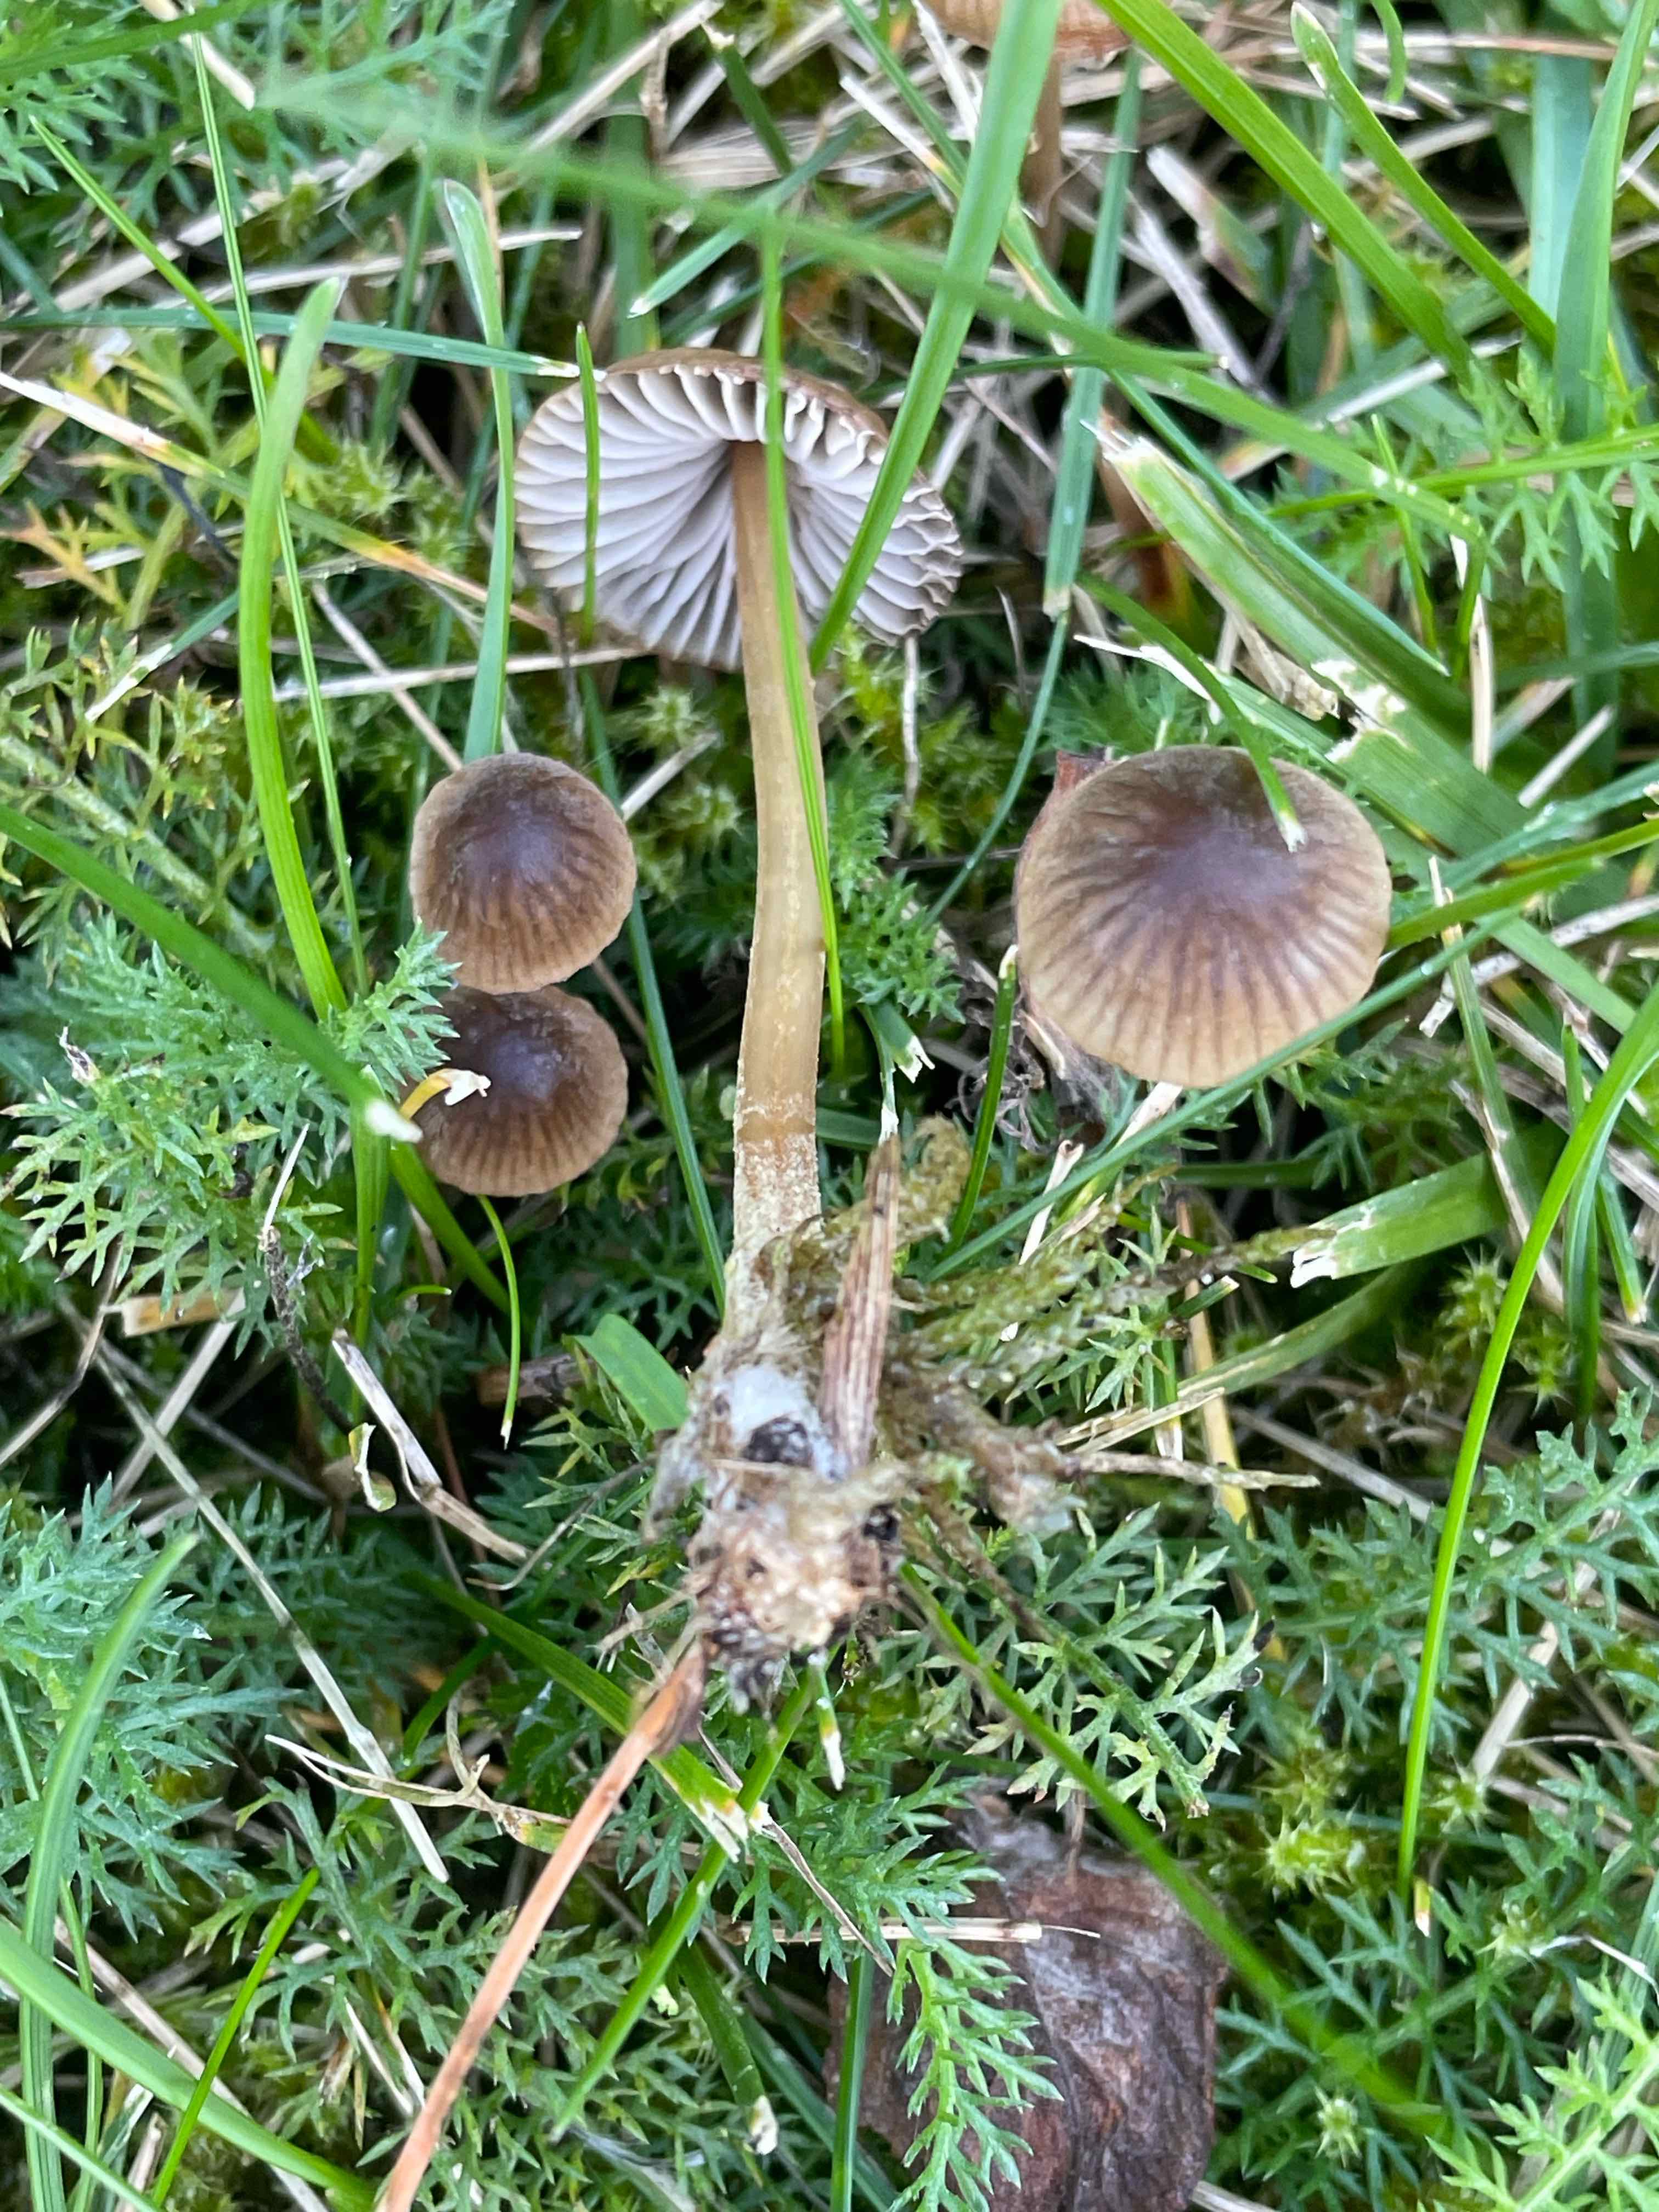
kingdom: Fungi
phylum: Basidiomycota
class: Agaricomycetes
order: Agaricales
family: Mycenaceae
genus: Mycena
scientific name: Mycena olivaceomarginata
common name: brunægget huesvamp
